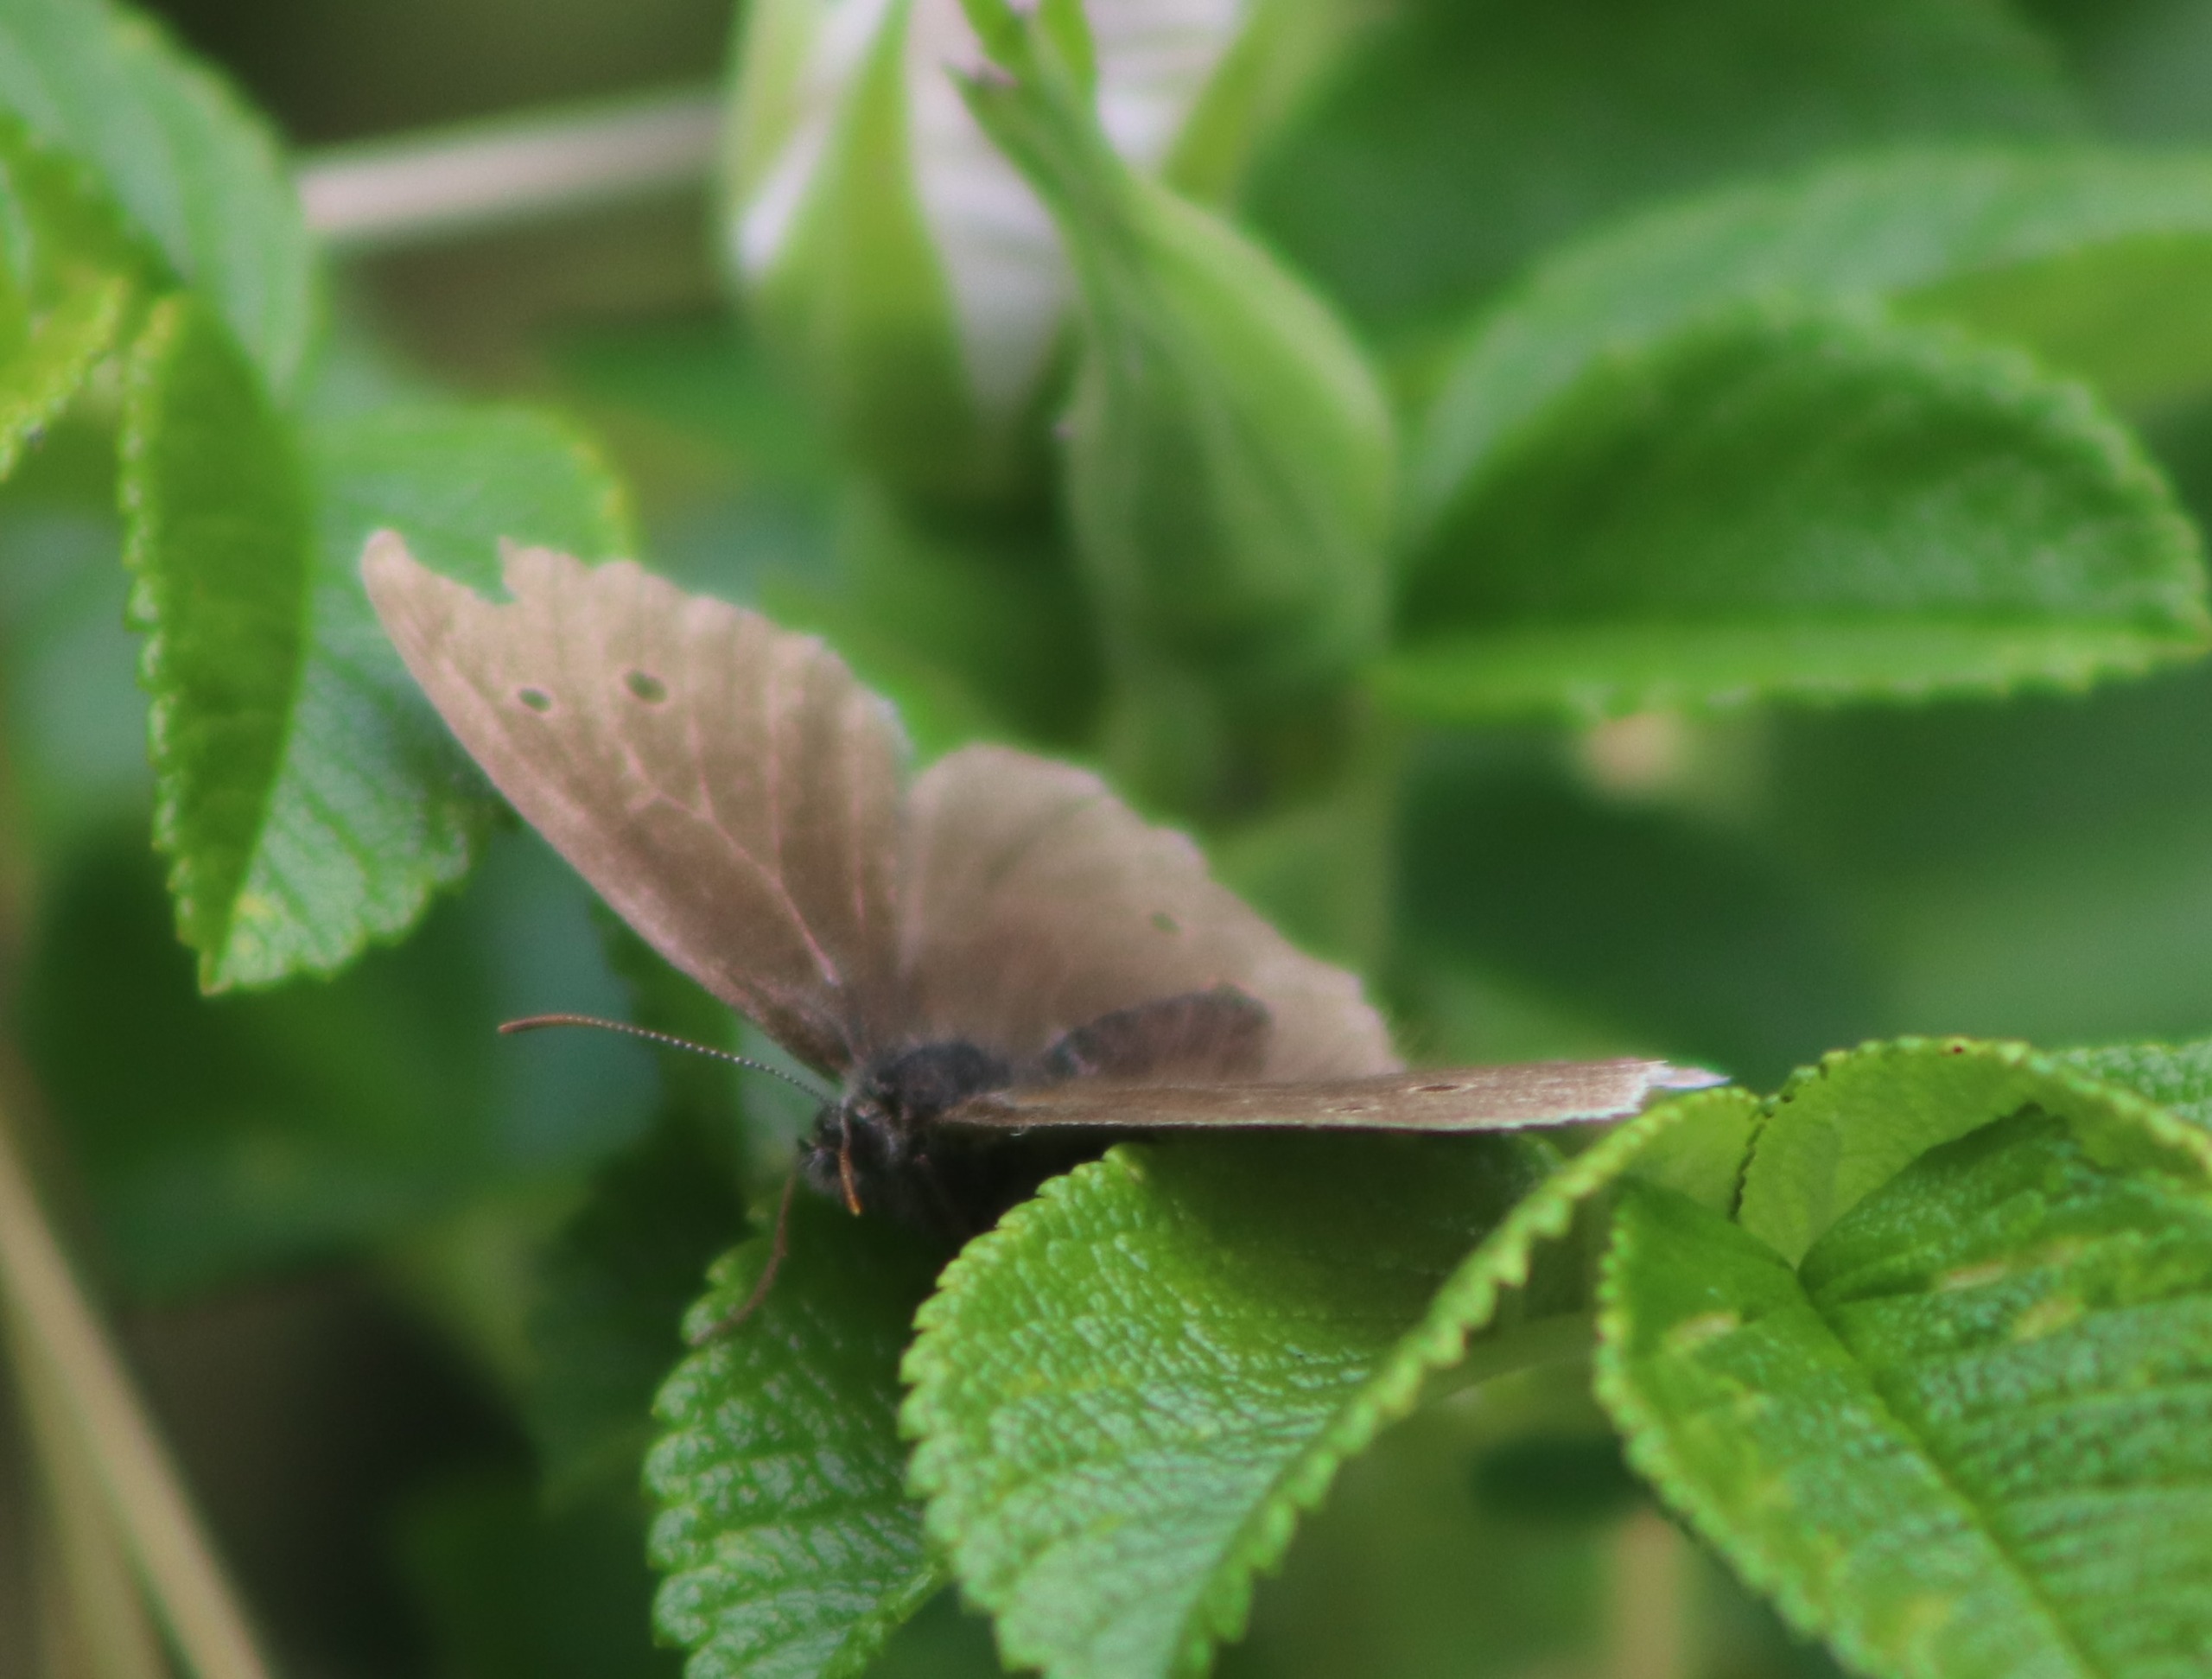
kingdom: Animalia
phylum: Arthropoda
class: Insecta
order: Lepidoptera
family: Nymphalidae
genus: Aphantopus
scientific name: Aphantopus hyperantus
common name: Engrandøje
